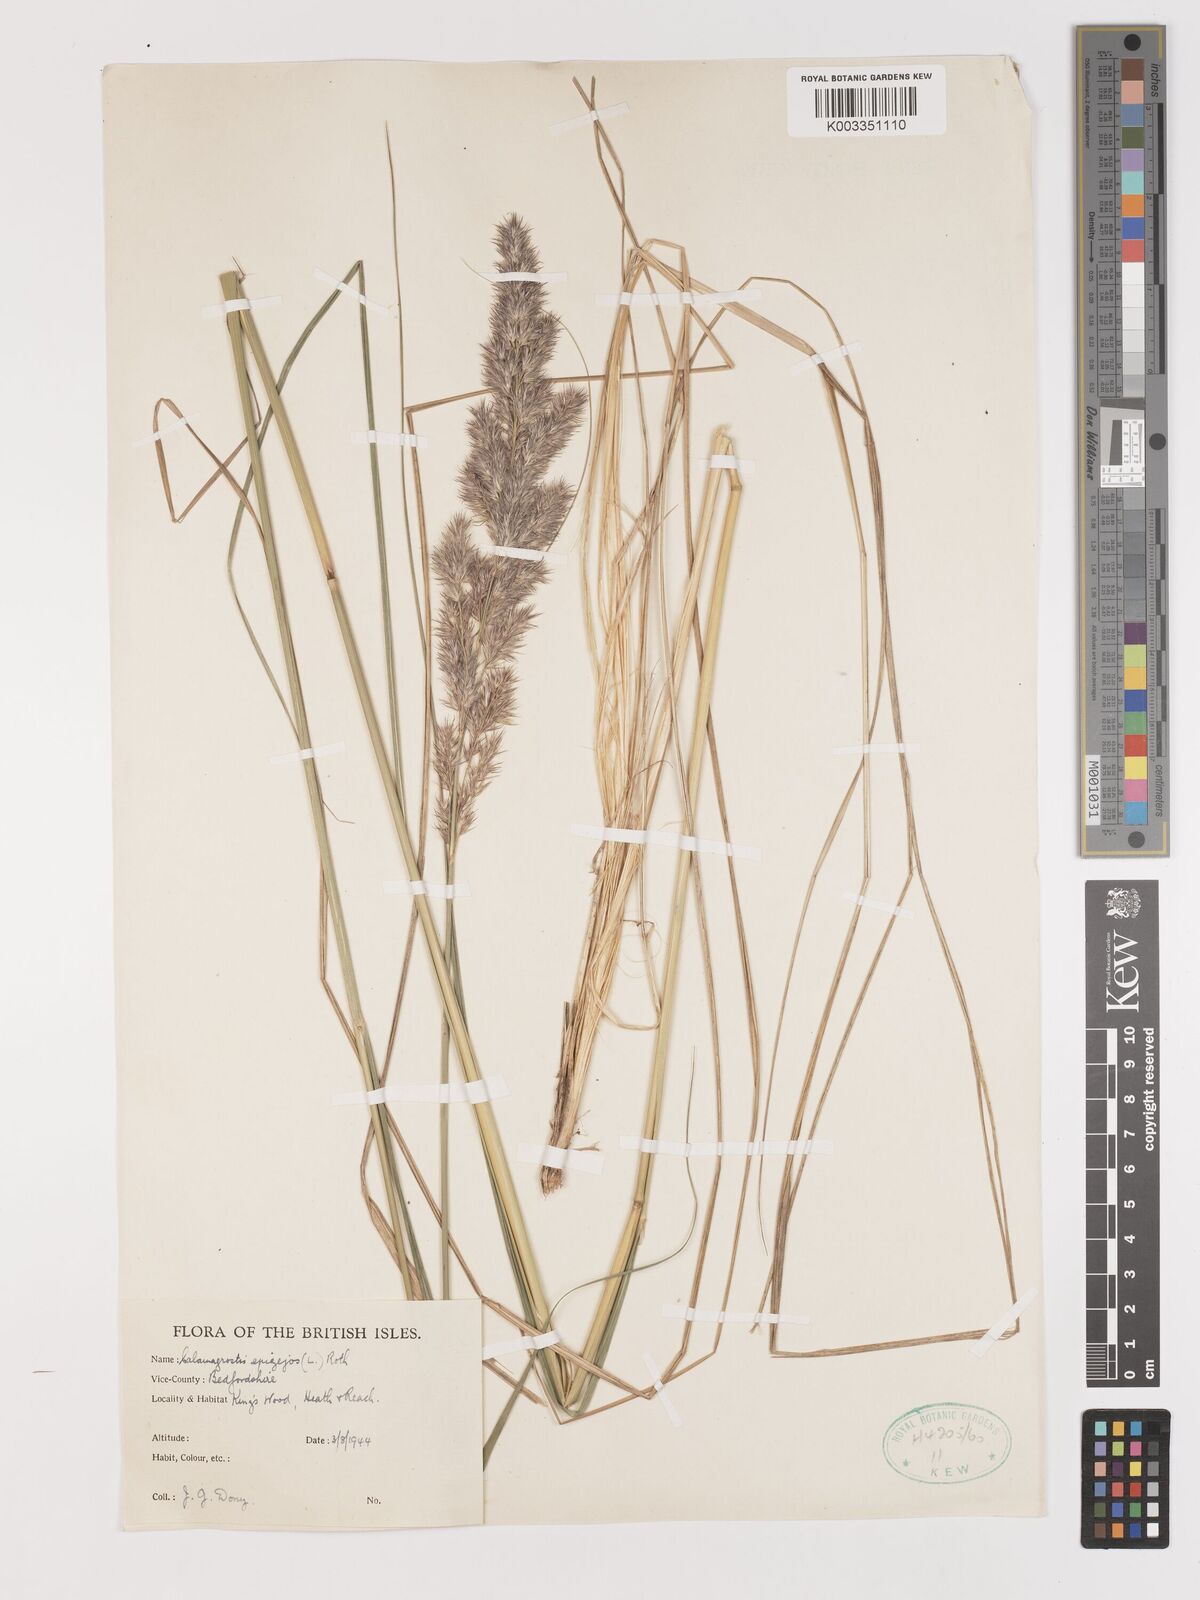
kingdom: Plantae
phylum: Tracheophyta
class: Liliopsida
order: Poales
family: Poaceae
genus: Calamagrostis
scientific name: Calamagrostis
